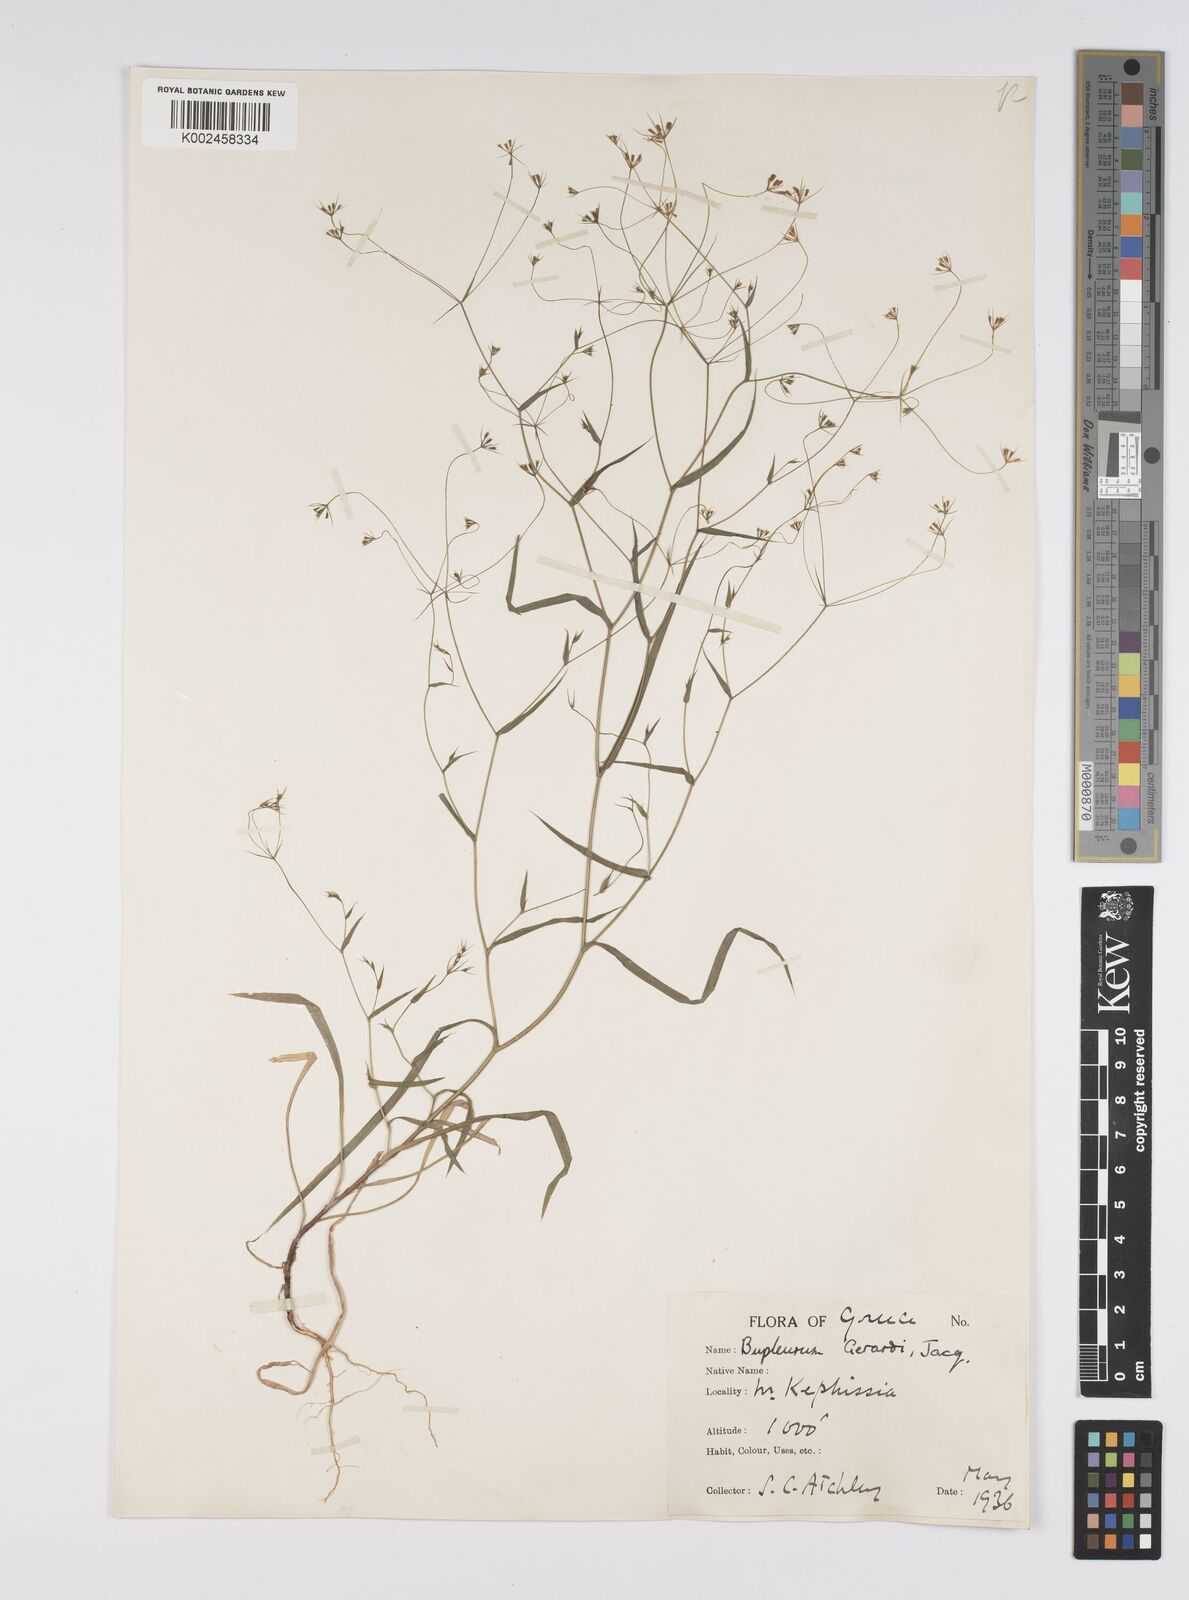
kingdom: Plantae
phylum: Tracheophyta
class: Magnoliopsida
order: Apiales
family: Apiaceae
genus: Bupleurum
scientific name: Bupleurum gerardi
